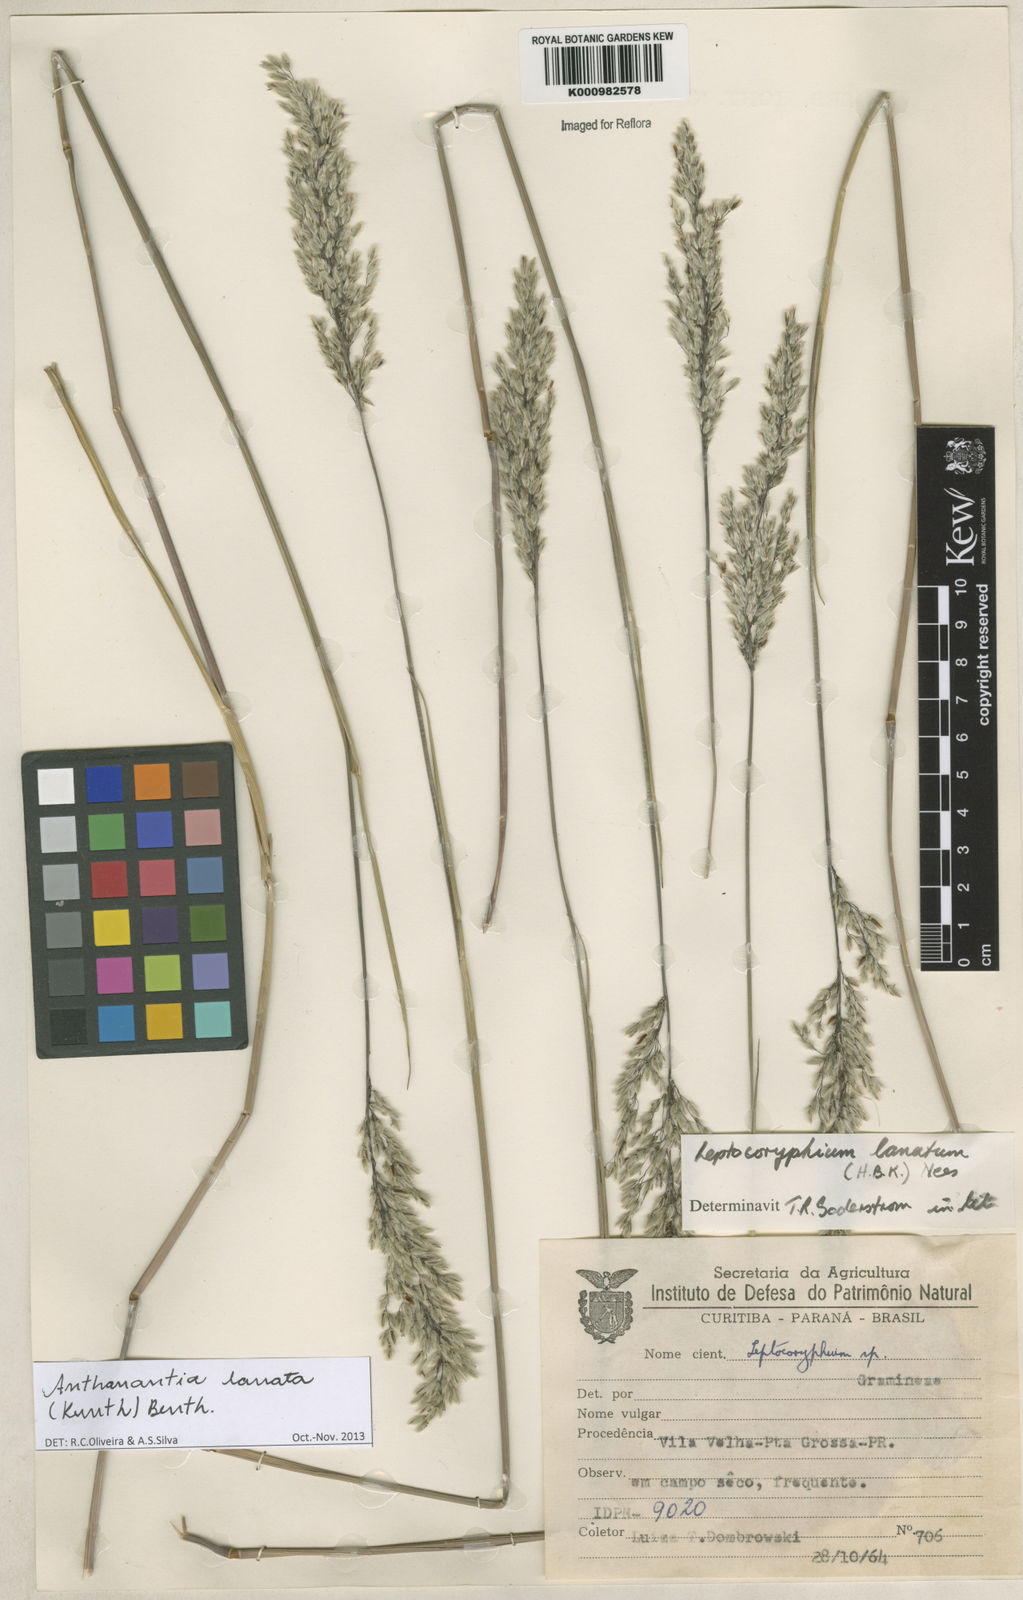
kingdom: Plantae
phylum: Tracheophyta
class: Liliopsida
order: Poales
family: Poaceae
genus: Anthenantia
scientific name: Anthenantia lanata
